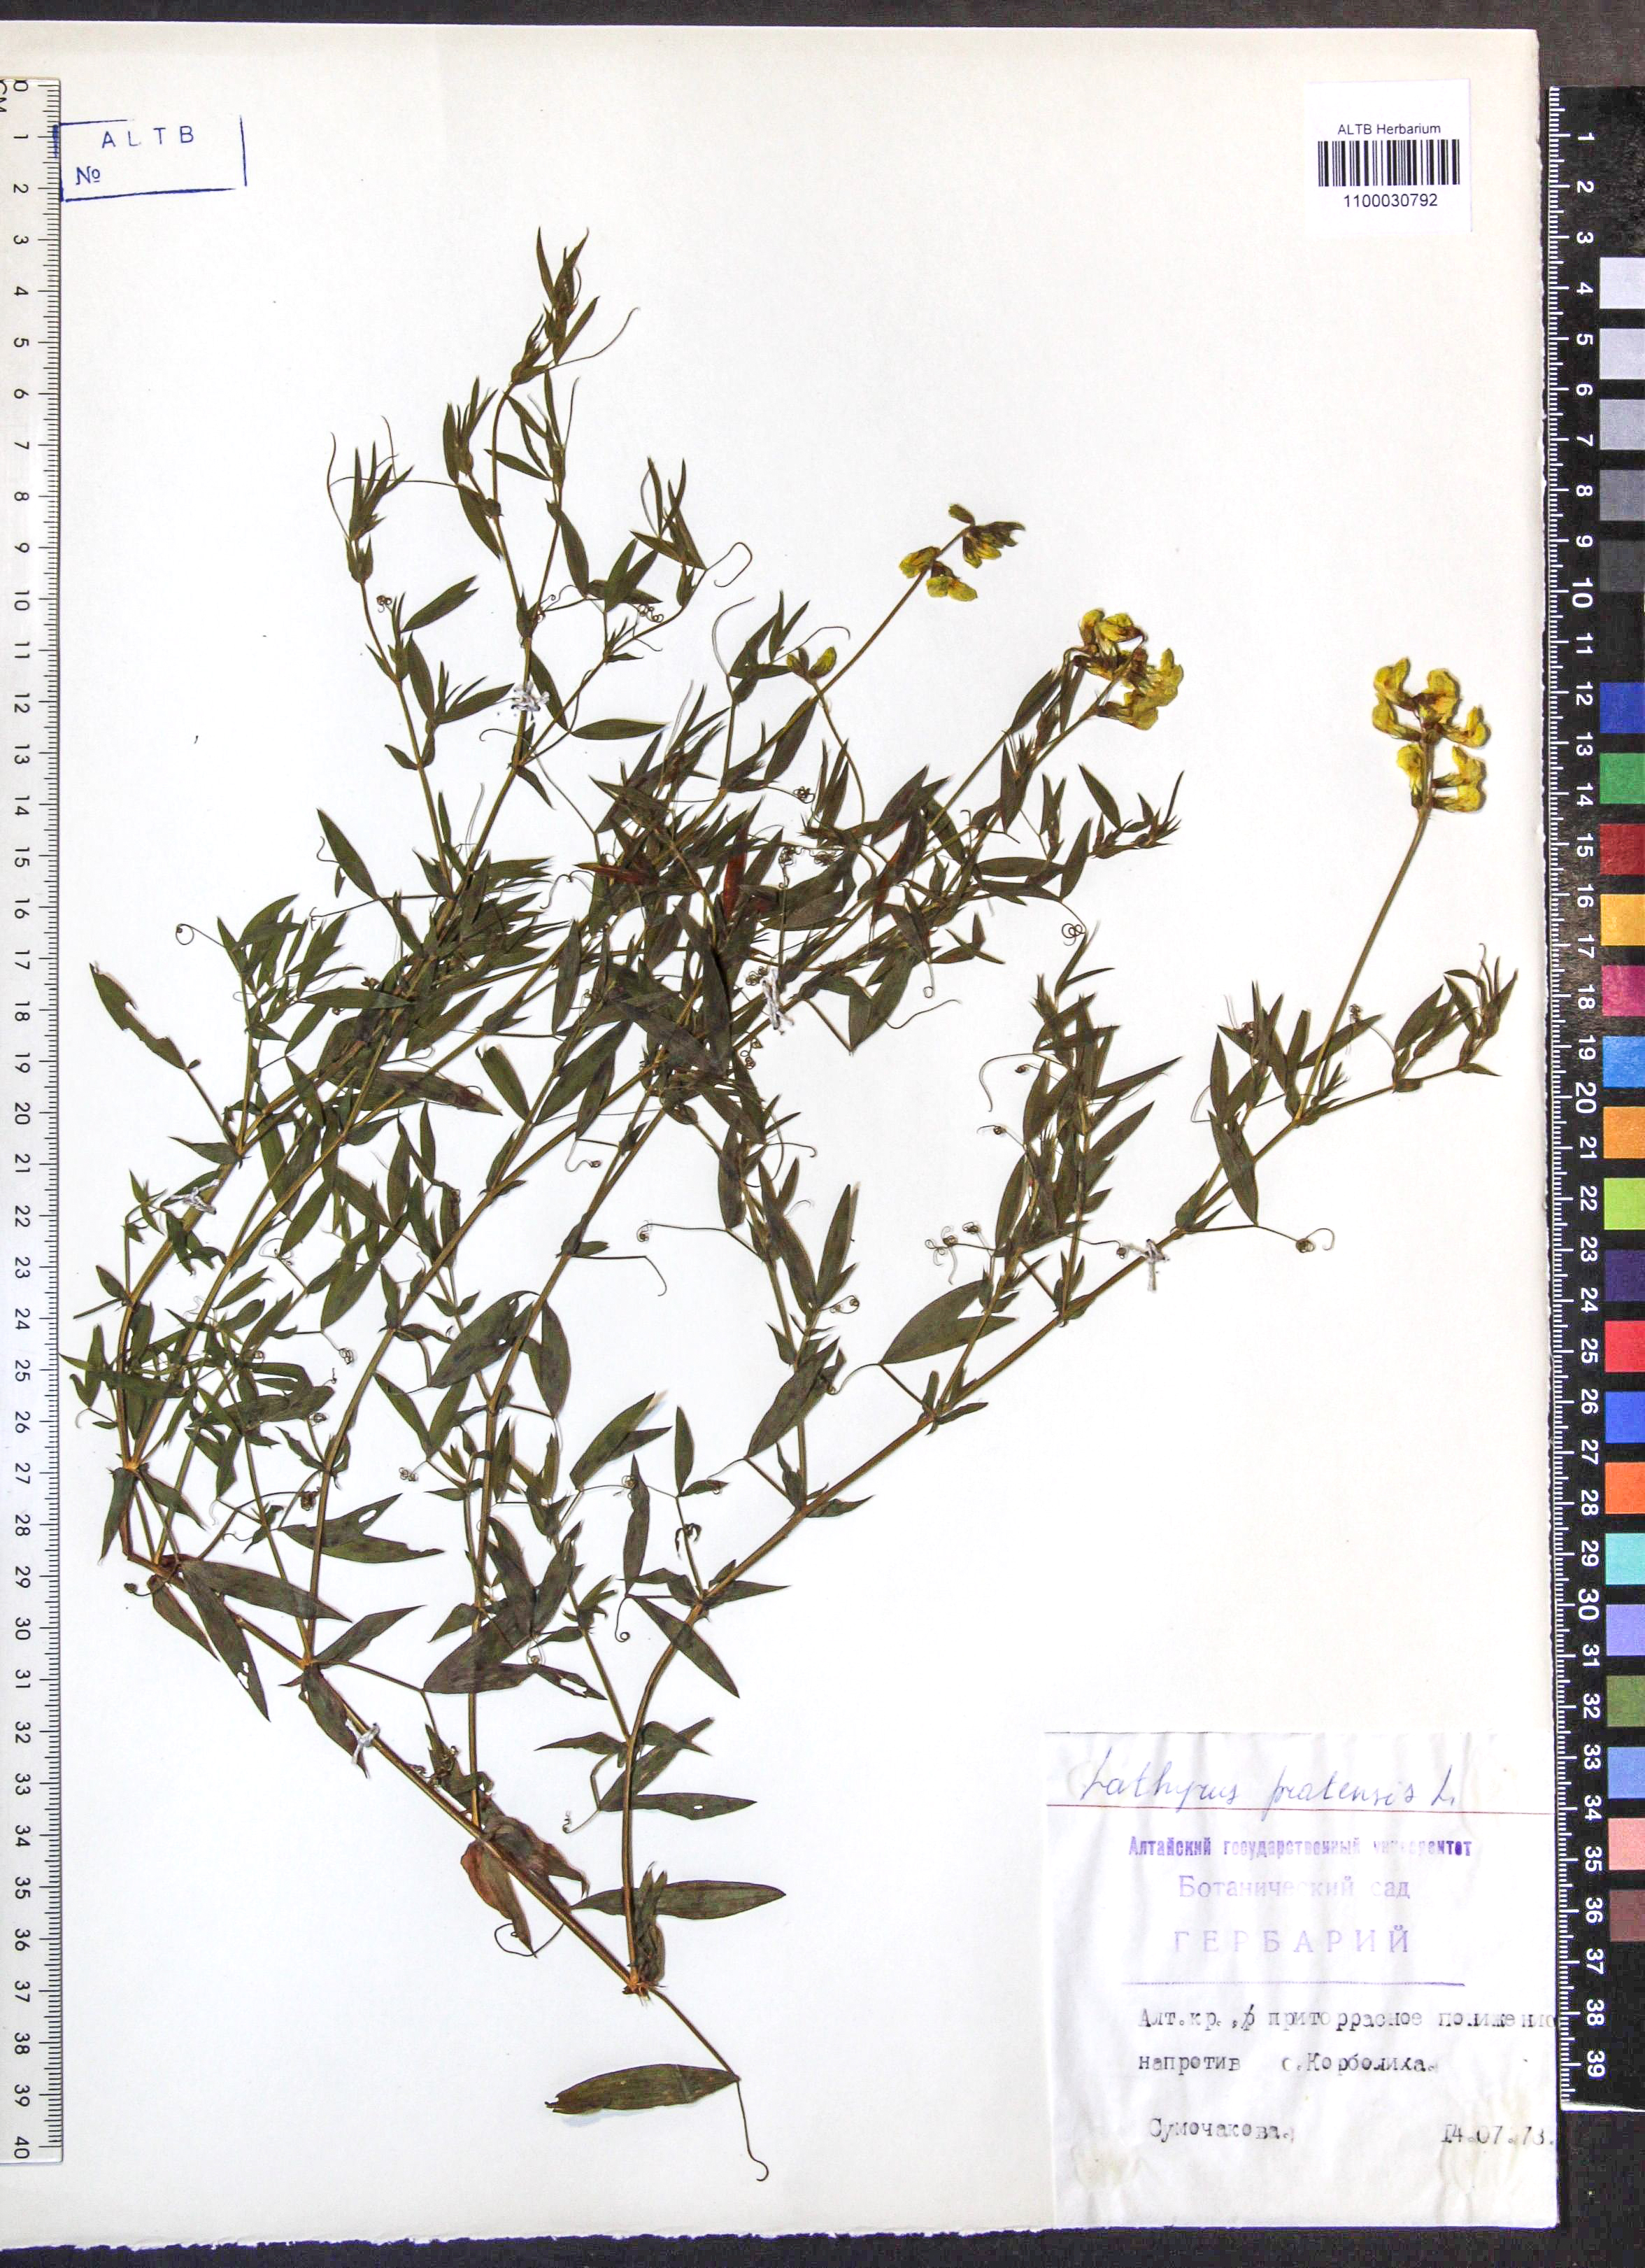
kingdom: Plantae
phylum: Tracheophyta
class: Magnoliopsida
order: Fabales
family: Fabaceae
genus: Lathyrus
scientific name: Lathyrus pratensis
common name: Meadow vetchling
